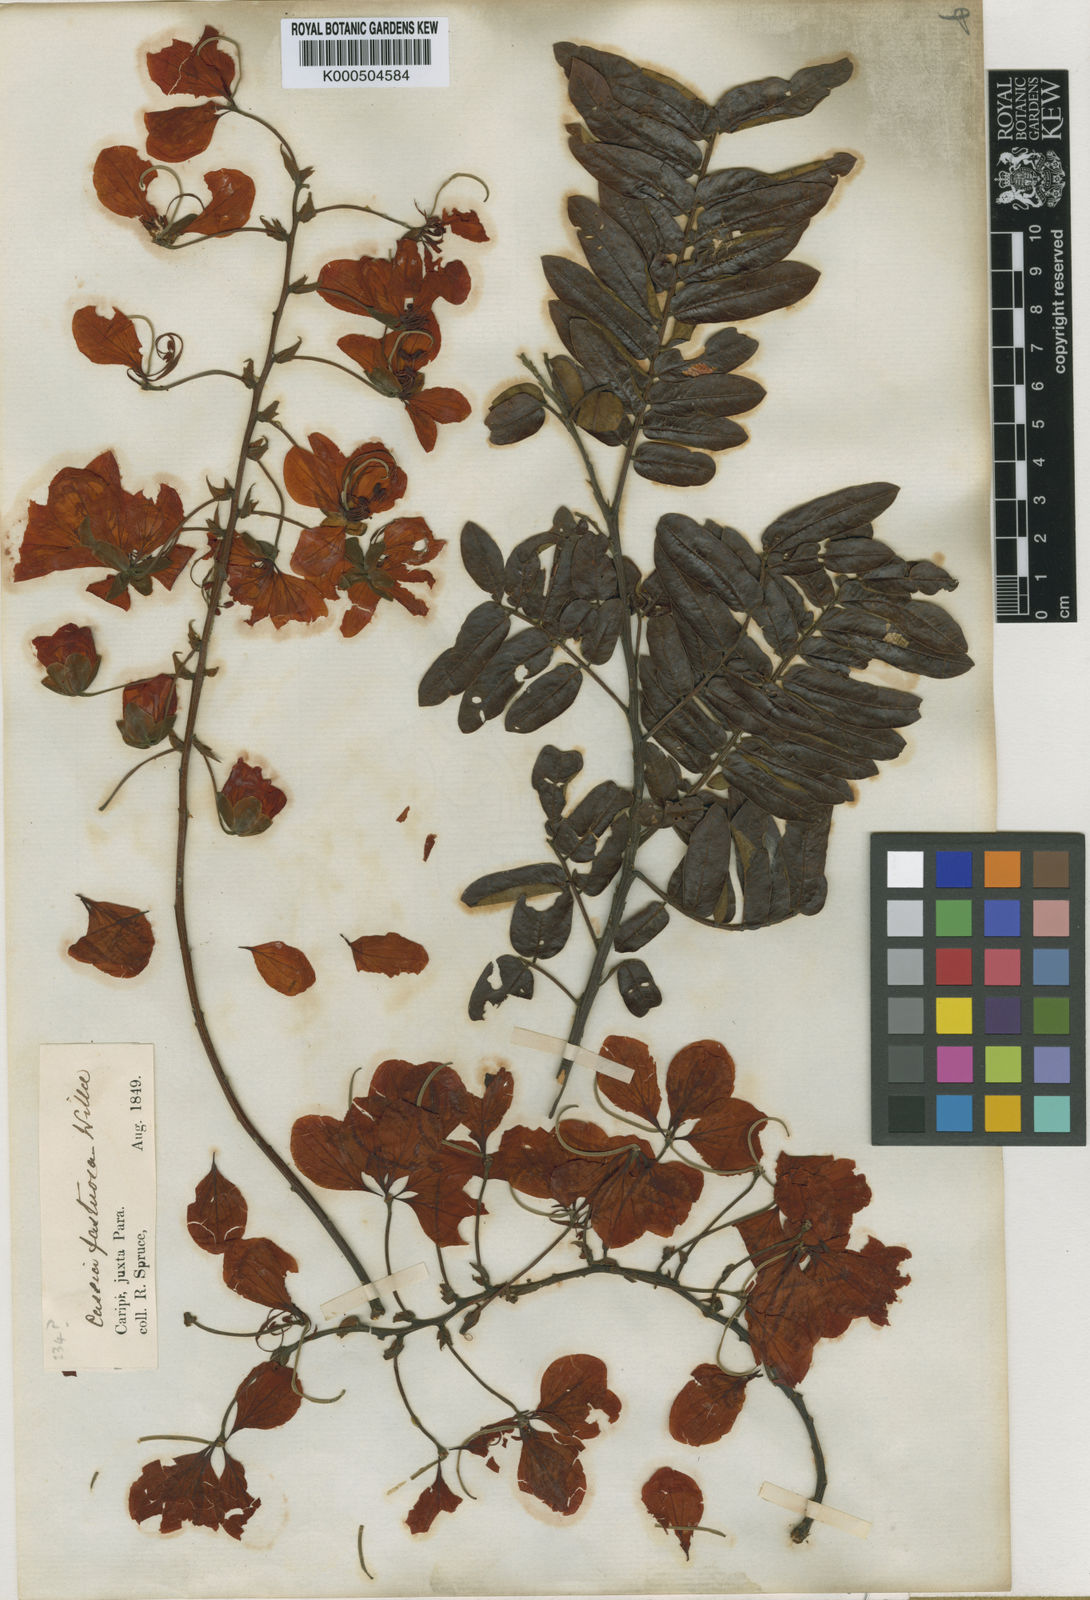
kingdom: Plantae
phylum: Tracheophyta
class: Magnoliopsida
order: Fabales
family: Fabaceae
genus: Cassia
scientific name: Cassia fastuosa
